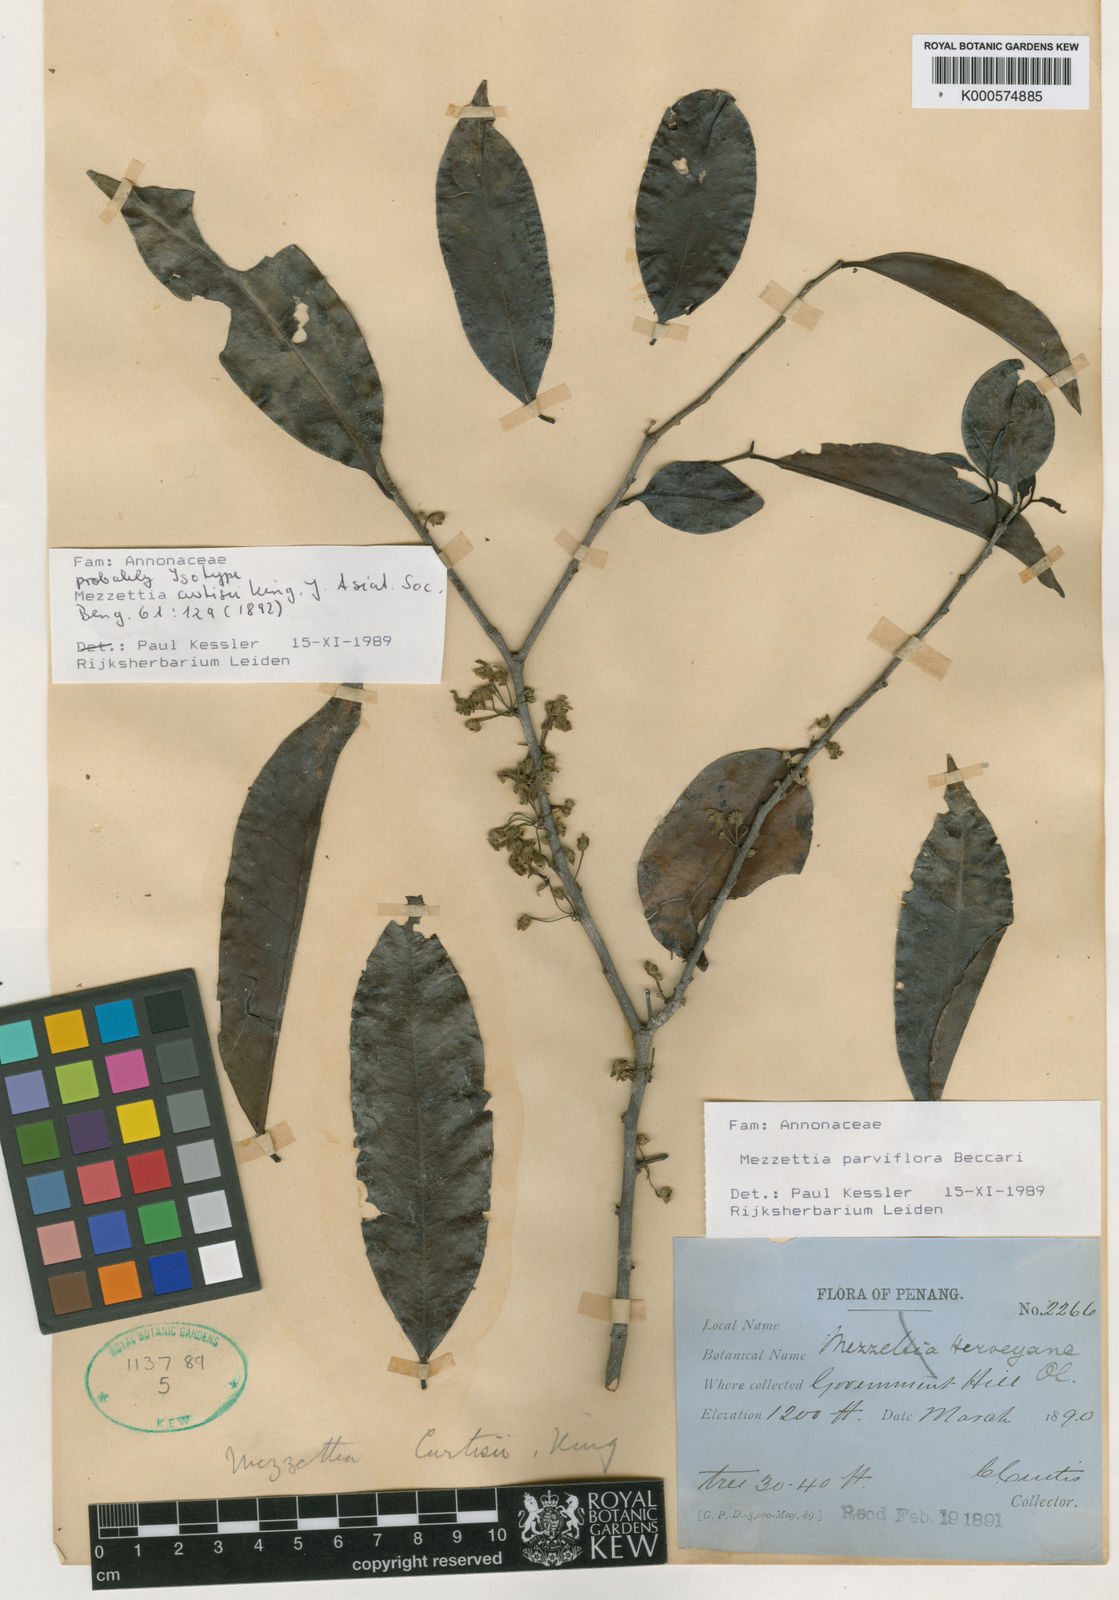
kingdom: Plantae
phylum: Tracheophyta
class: Magnoliopsida
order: Magnoliales
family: Annonaceae
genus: Mezzettia
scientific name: Mezzettia parviflora
